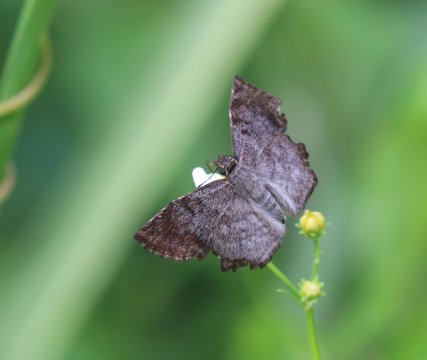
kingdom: Animalia
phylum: Arthropoda
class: Insecta
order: Lepidoptera
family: Hesperiidae
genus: Antigonus
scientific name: Antigonus erosus
